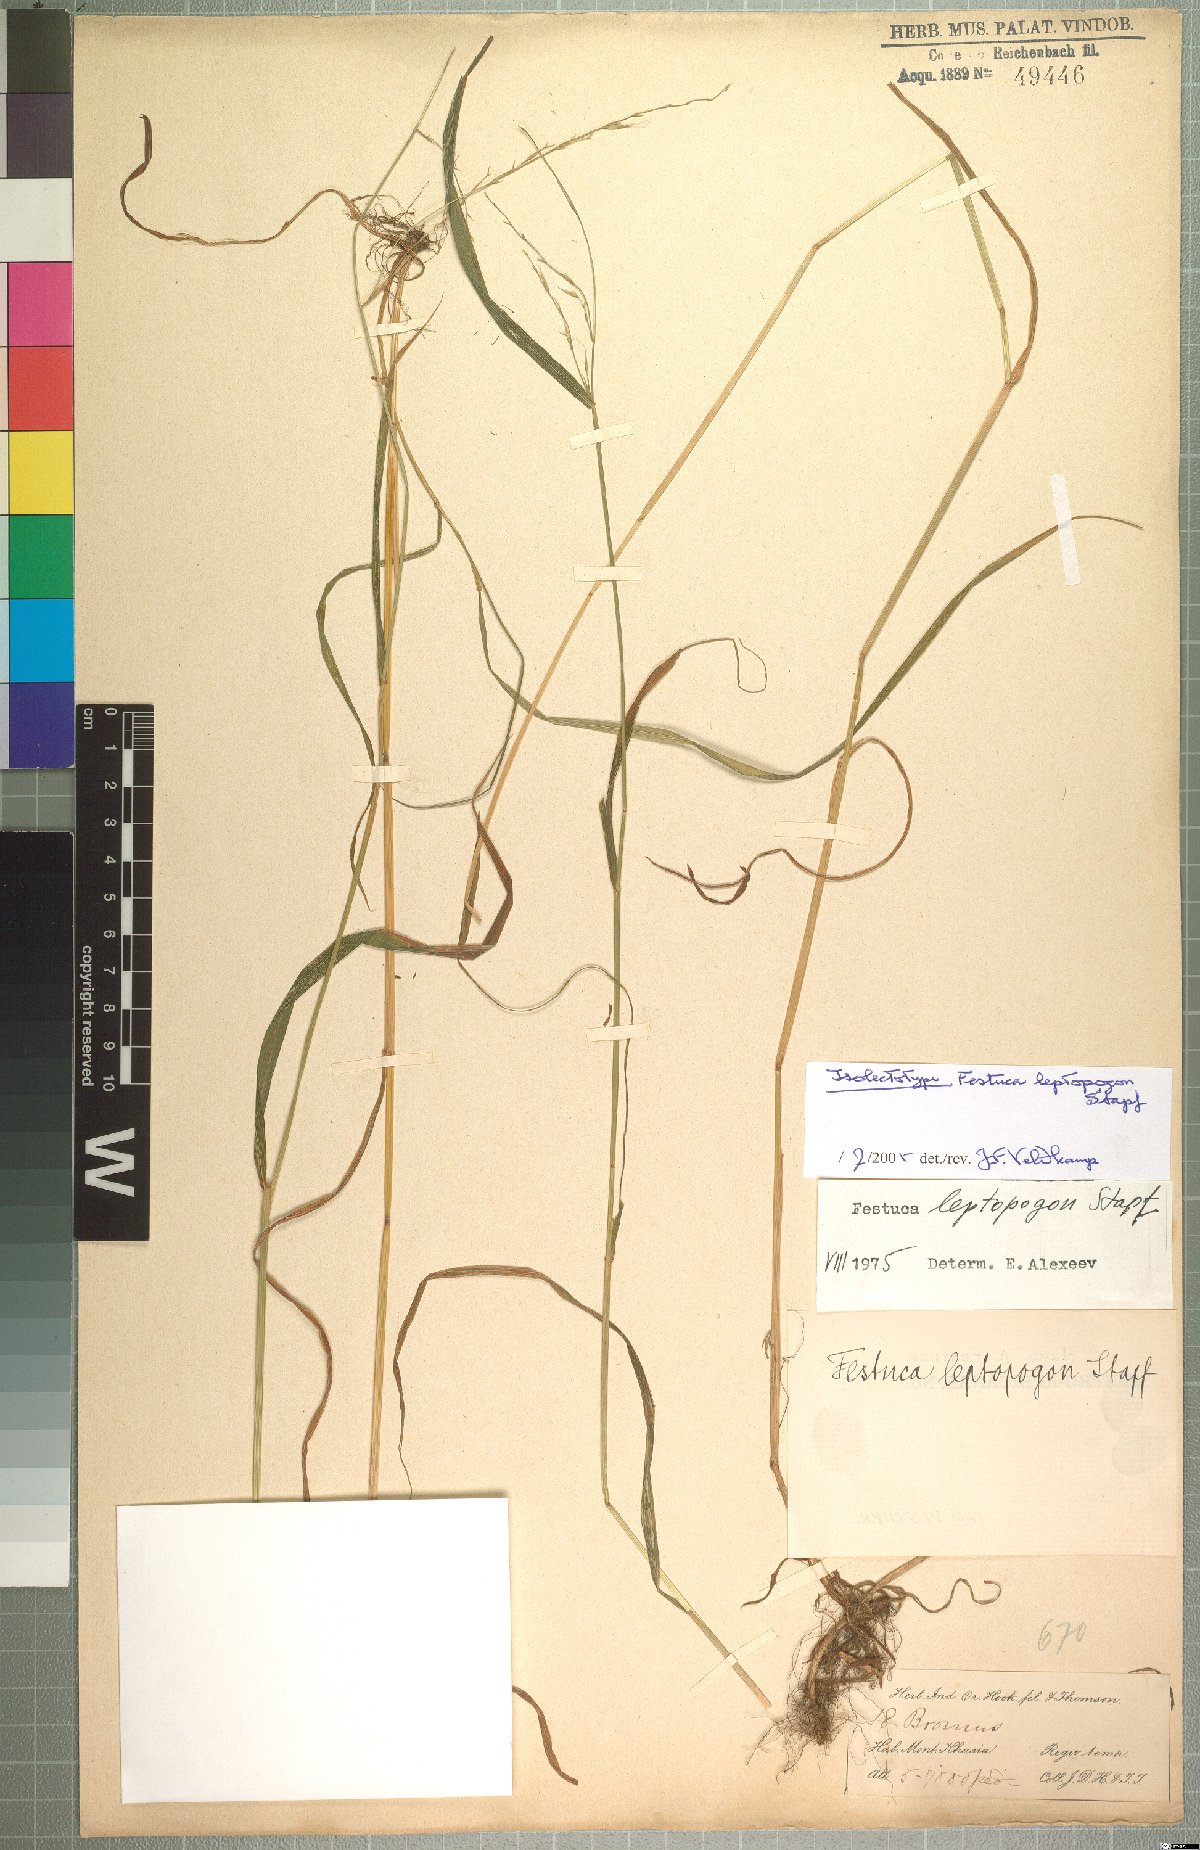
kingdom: Plantae
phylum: Tracheophyta
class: Liliopsida
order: Poales
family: Poaceae
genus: Festuca
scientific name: Festuca leptopogon
